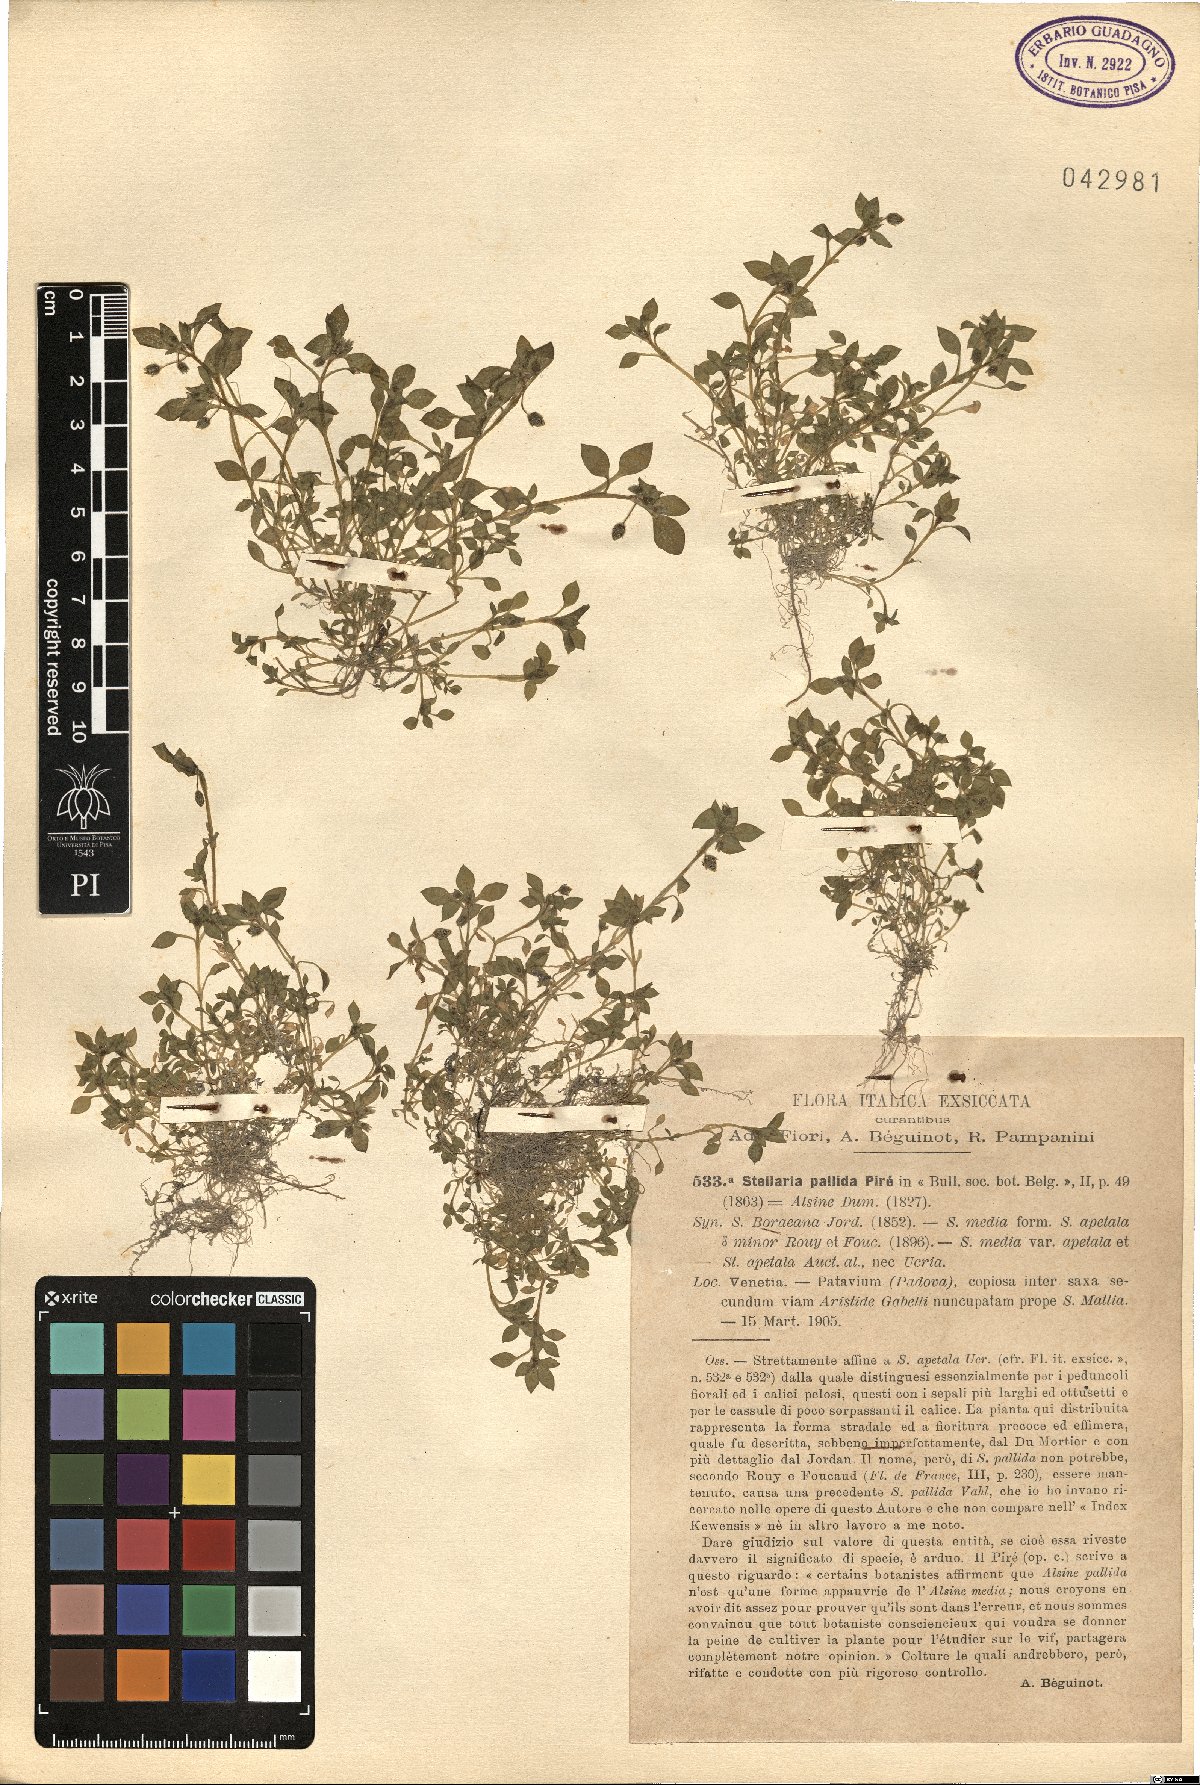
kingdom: Plantae
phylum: Tracheophyta
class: Magnoliopsida
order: Caryophyllales
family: Caryophyllaceae
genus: Stellaria
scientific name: Stellaria apetala
